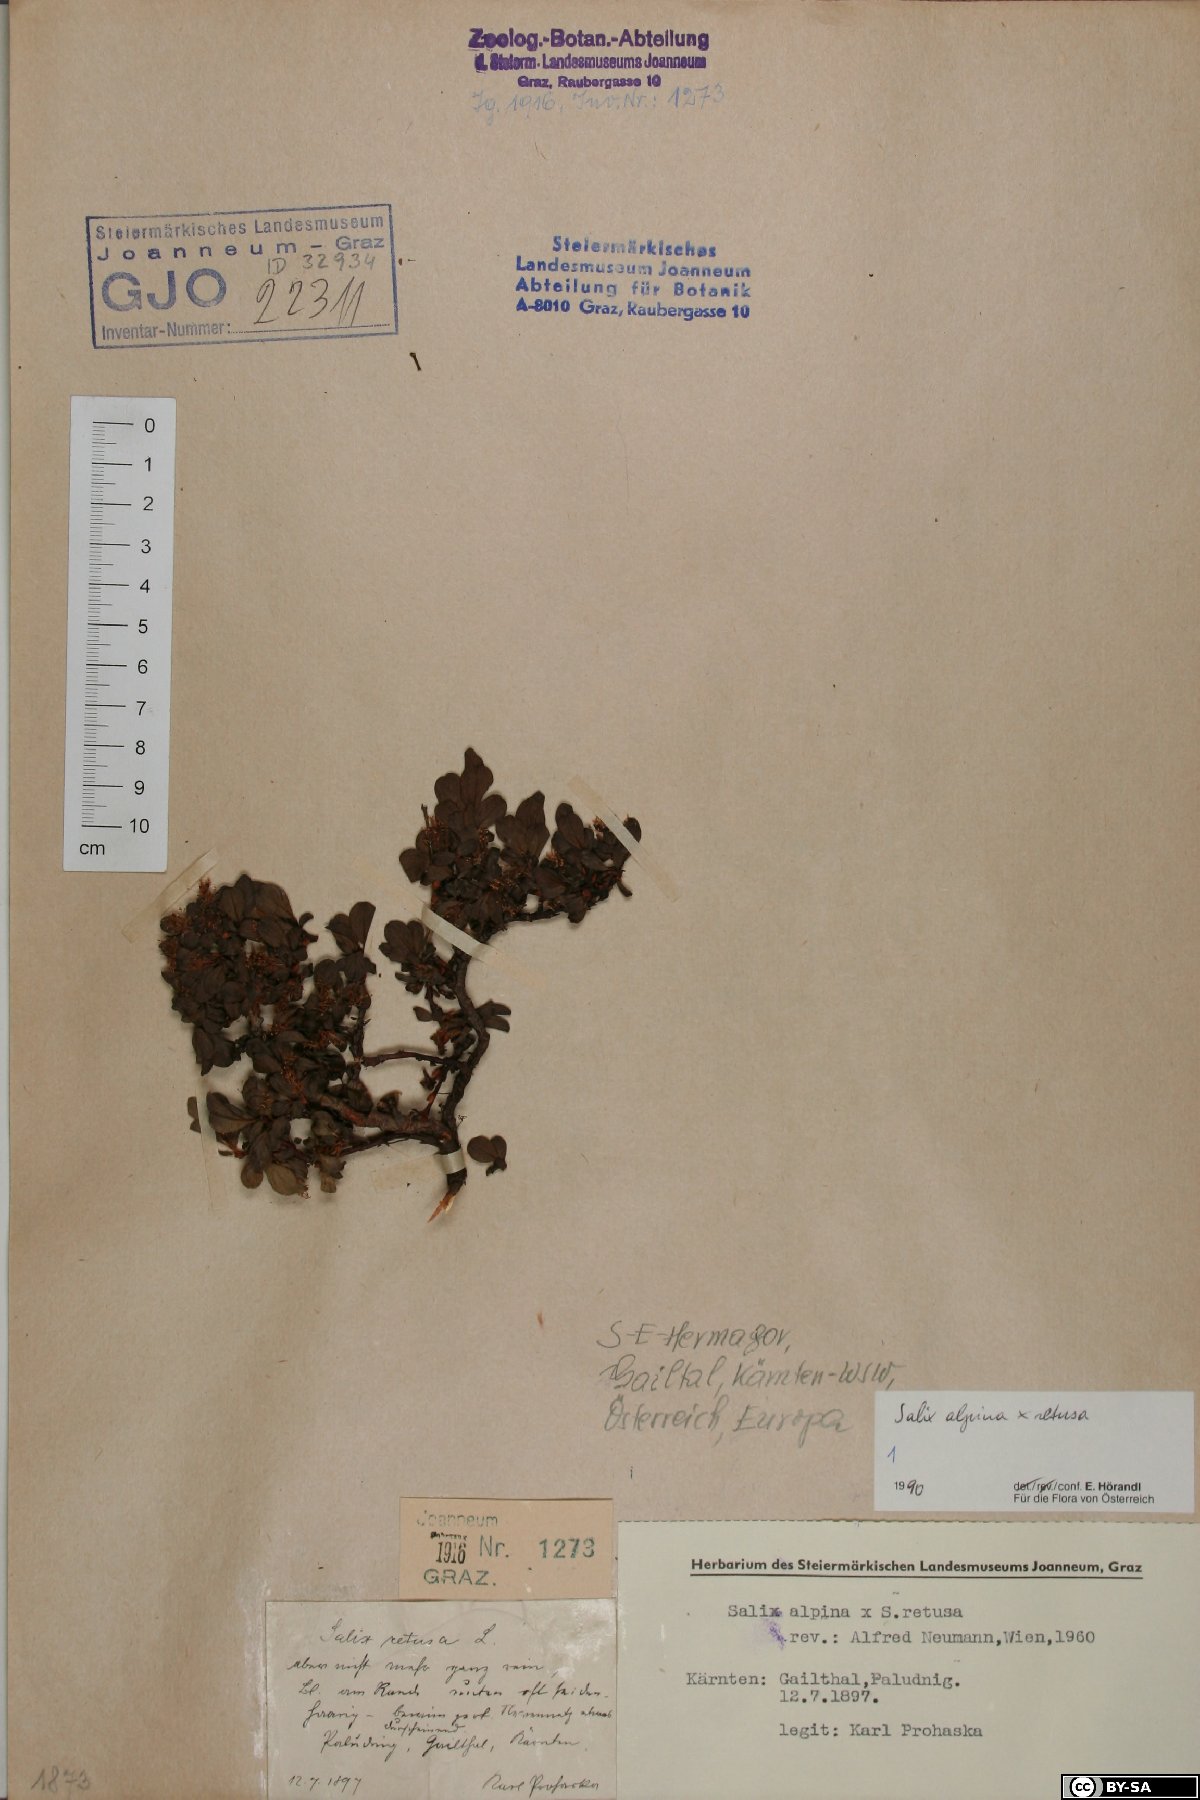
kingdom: Plantae
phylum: Tracheophyta
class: Magnoliopsida
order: Malpighiales
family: Salicaceae
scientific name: Salicaceae
